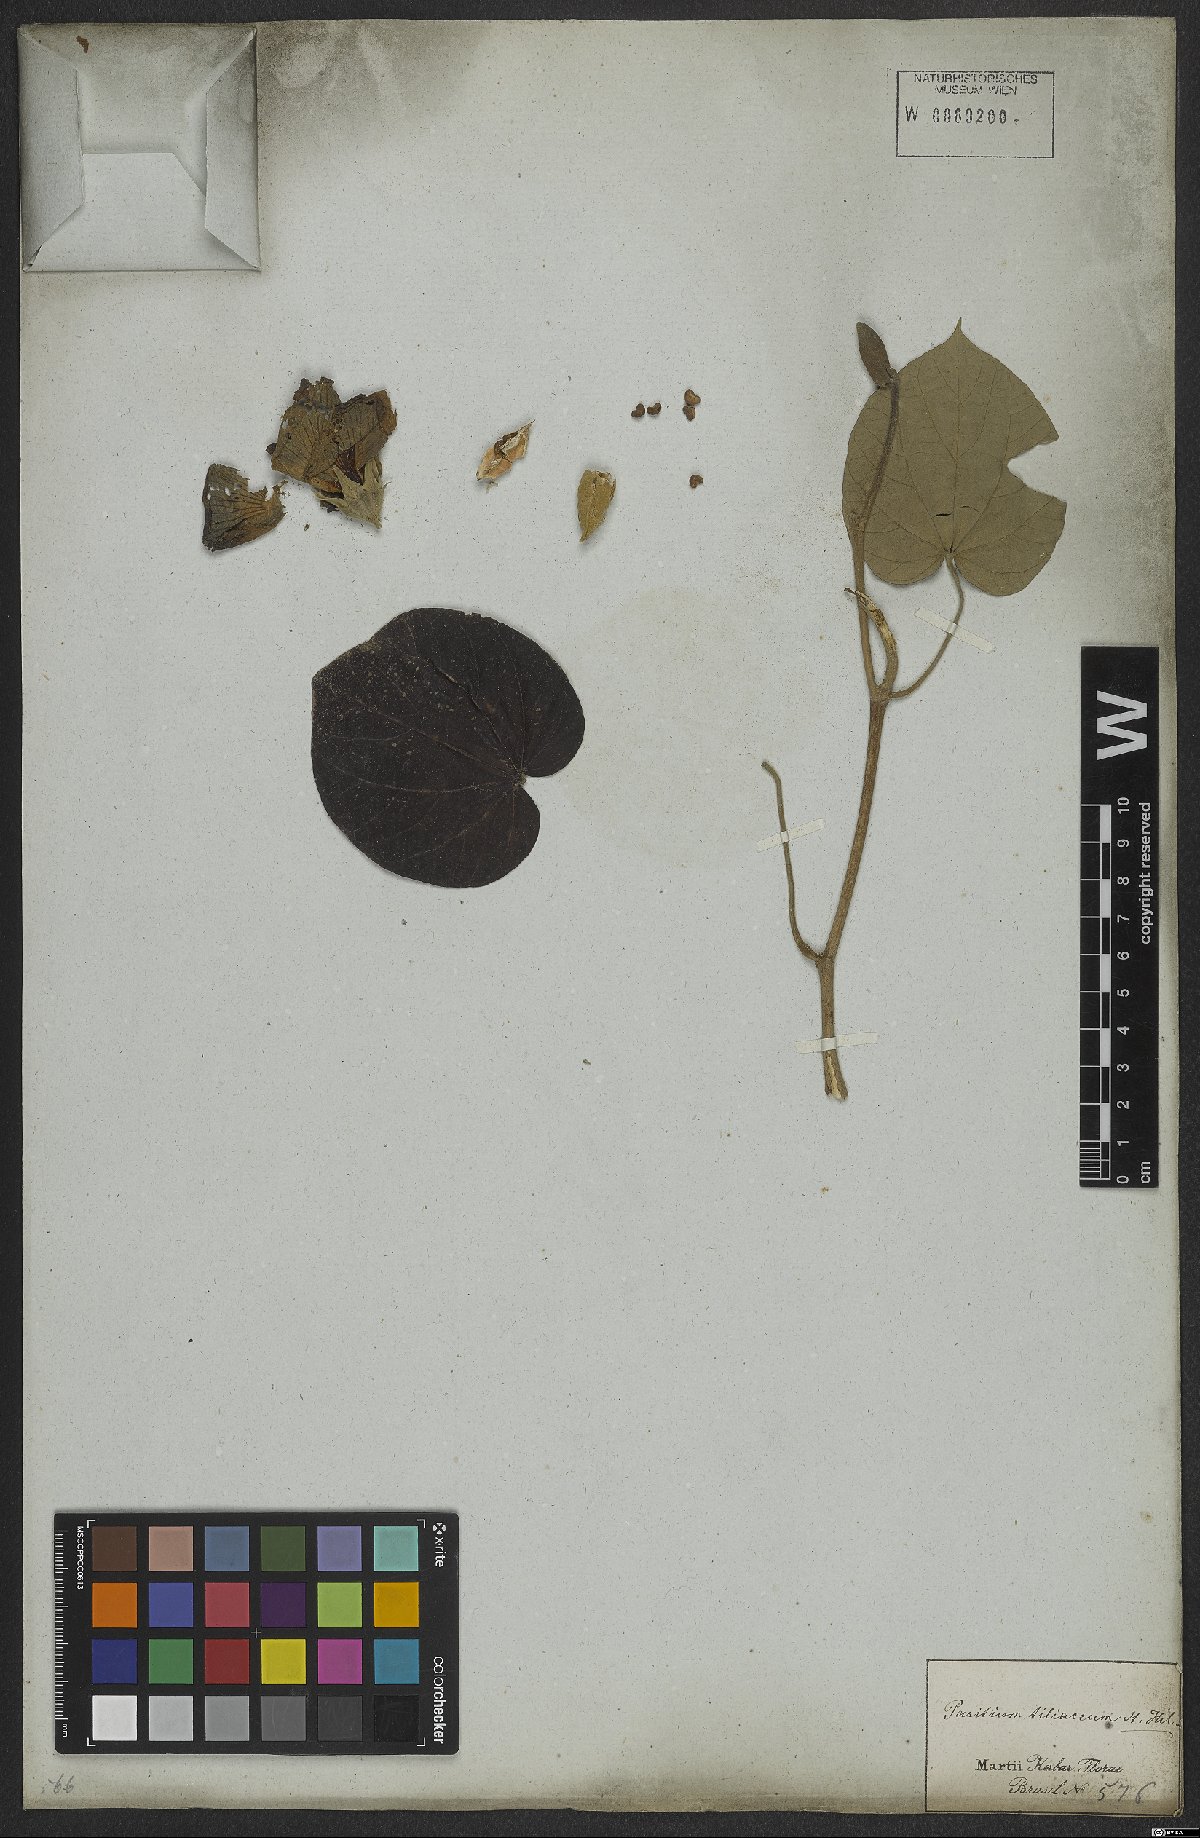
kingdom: Plantae
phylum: Tracheophyta
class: Magnoliopsida
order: Malvales
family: Malvaceae
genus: Talipariti
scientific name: Talipariti tiliaceum
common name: Sea hibiscus
